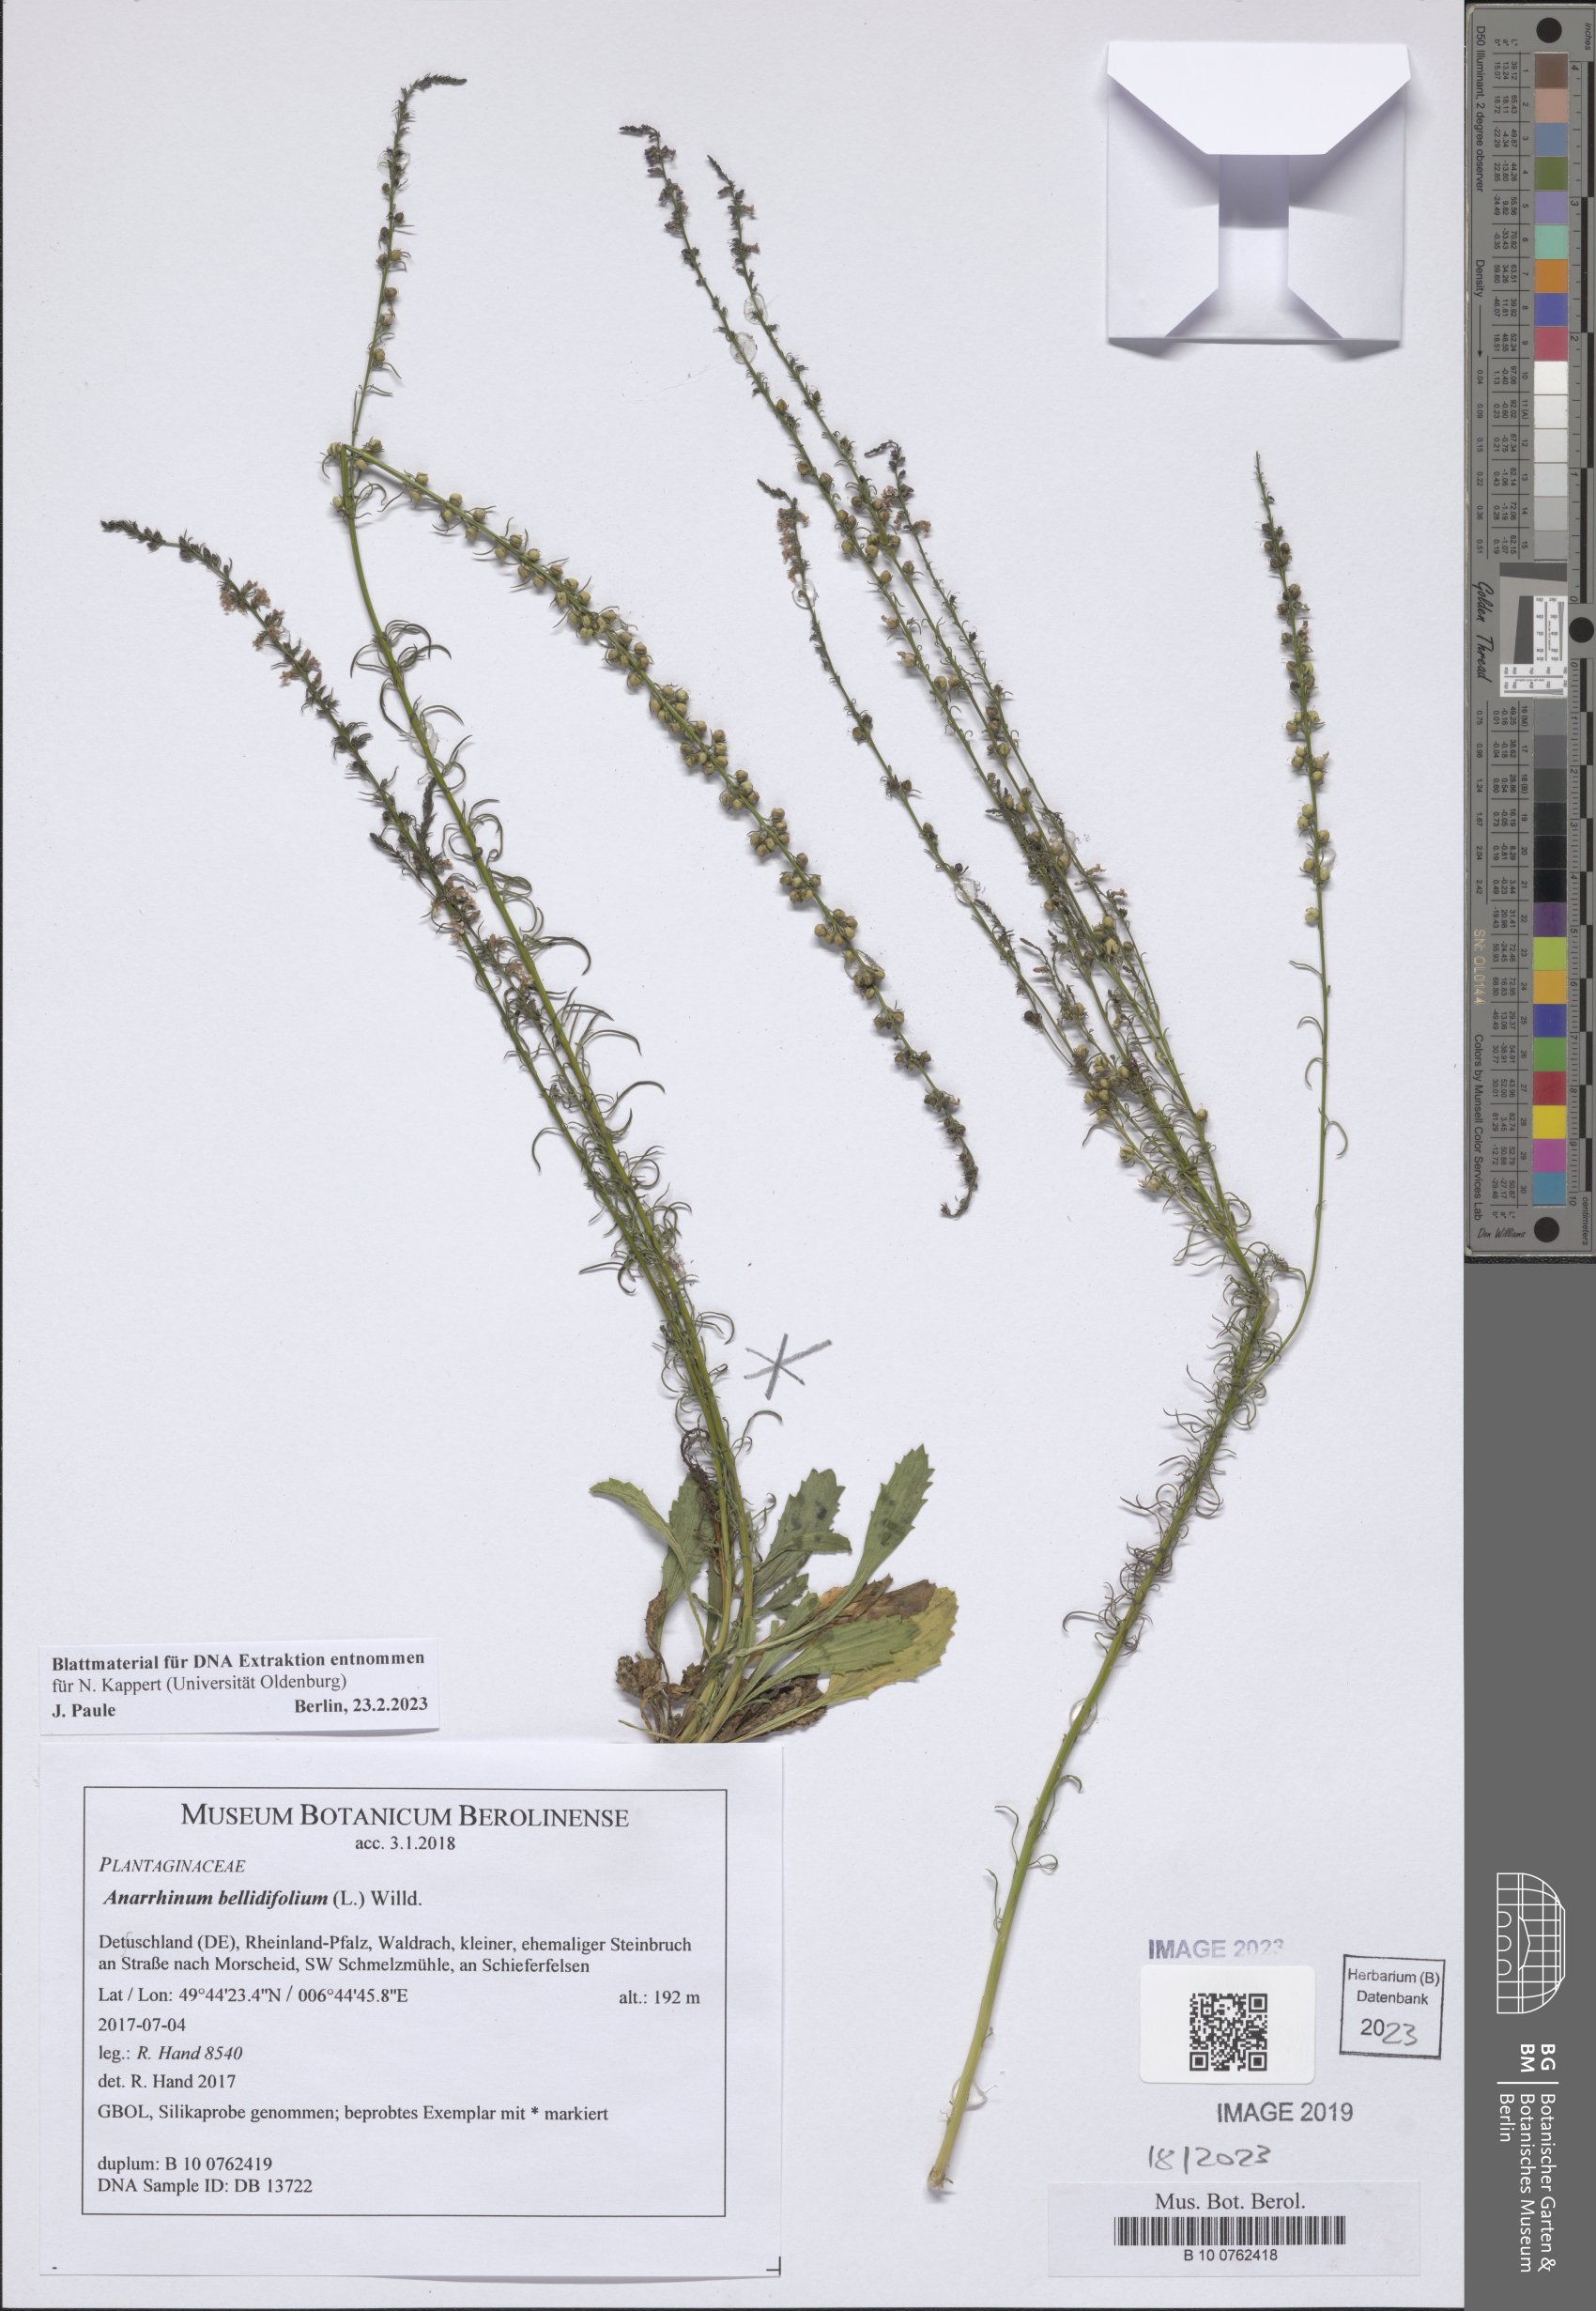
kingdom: Plantae
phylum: Tracheophyta
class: Magnoliopsida
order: Lamiales
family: Plantaginaceae
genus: Anarrhinum
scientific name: Anarrhinum bellidifolium
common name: Daisy-leaved toadflax
